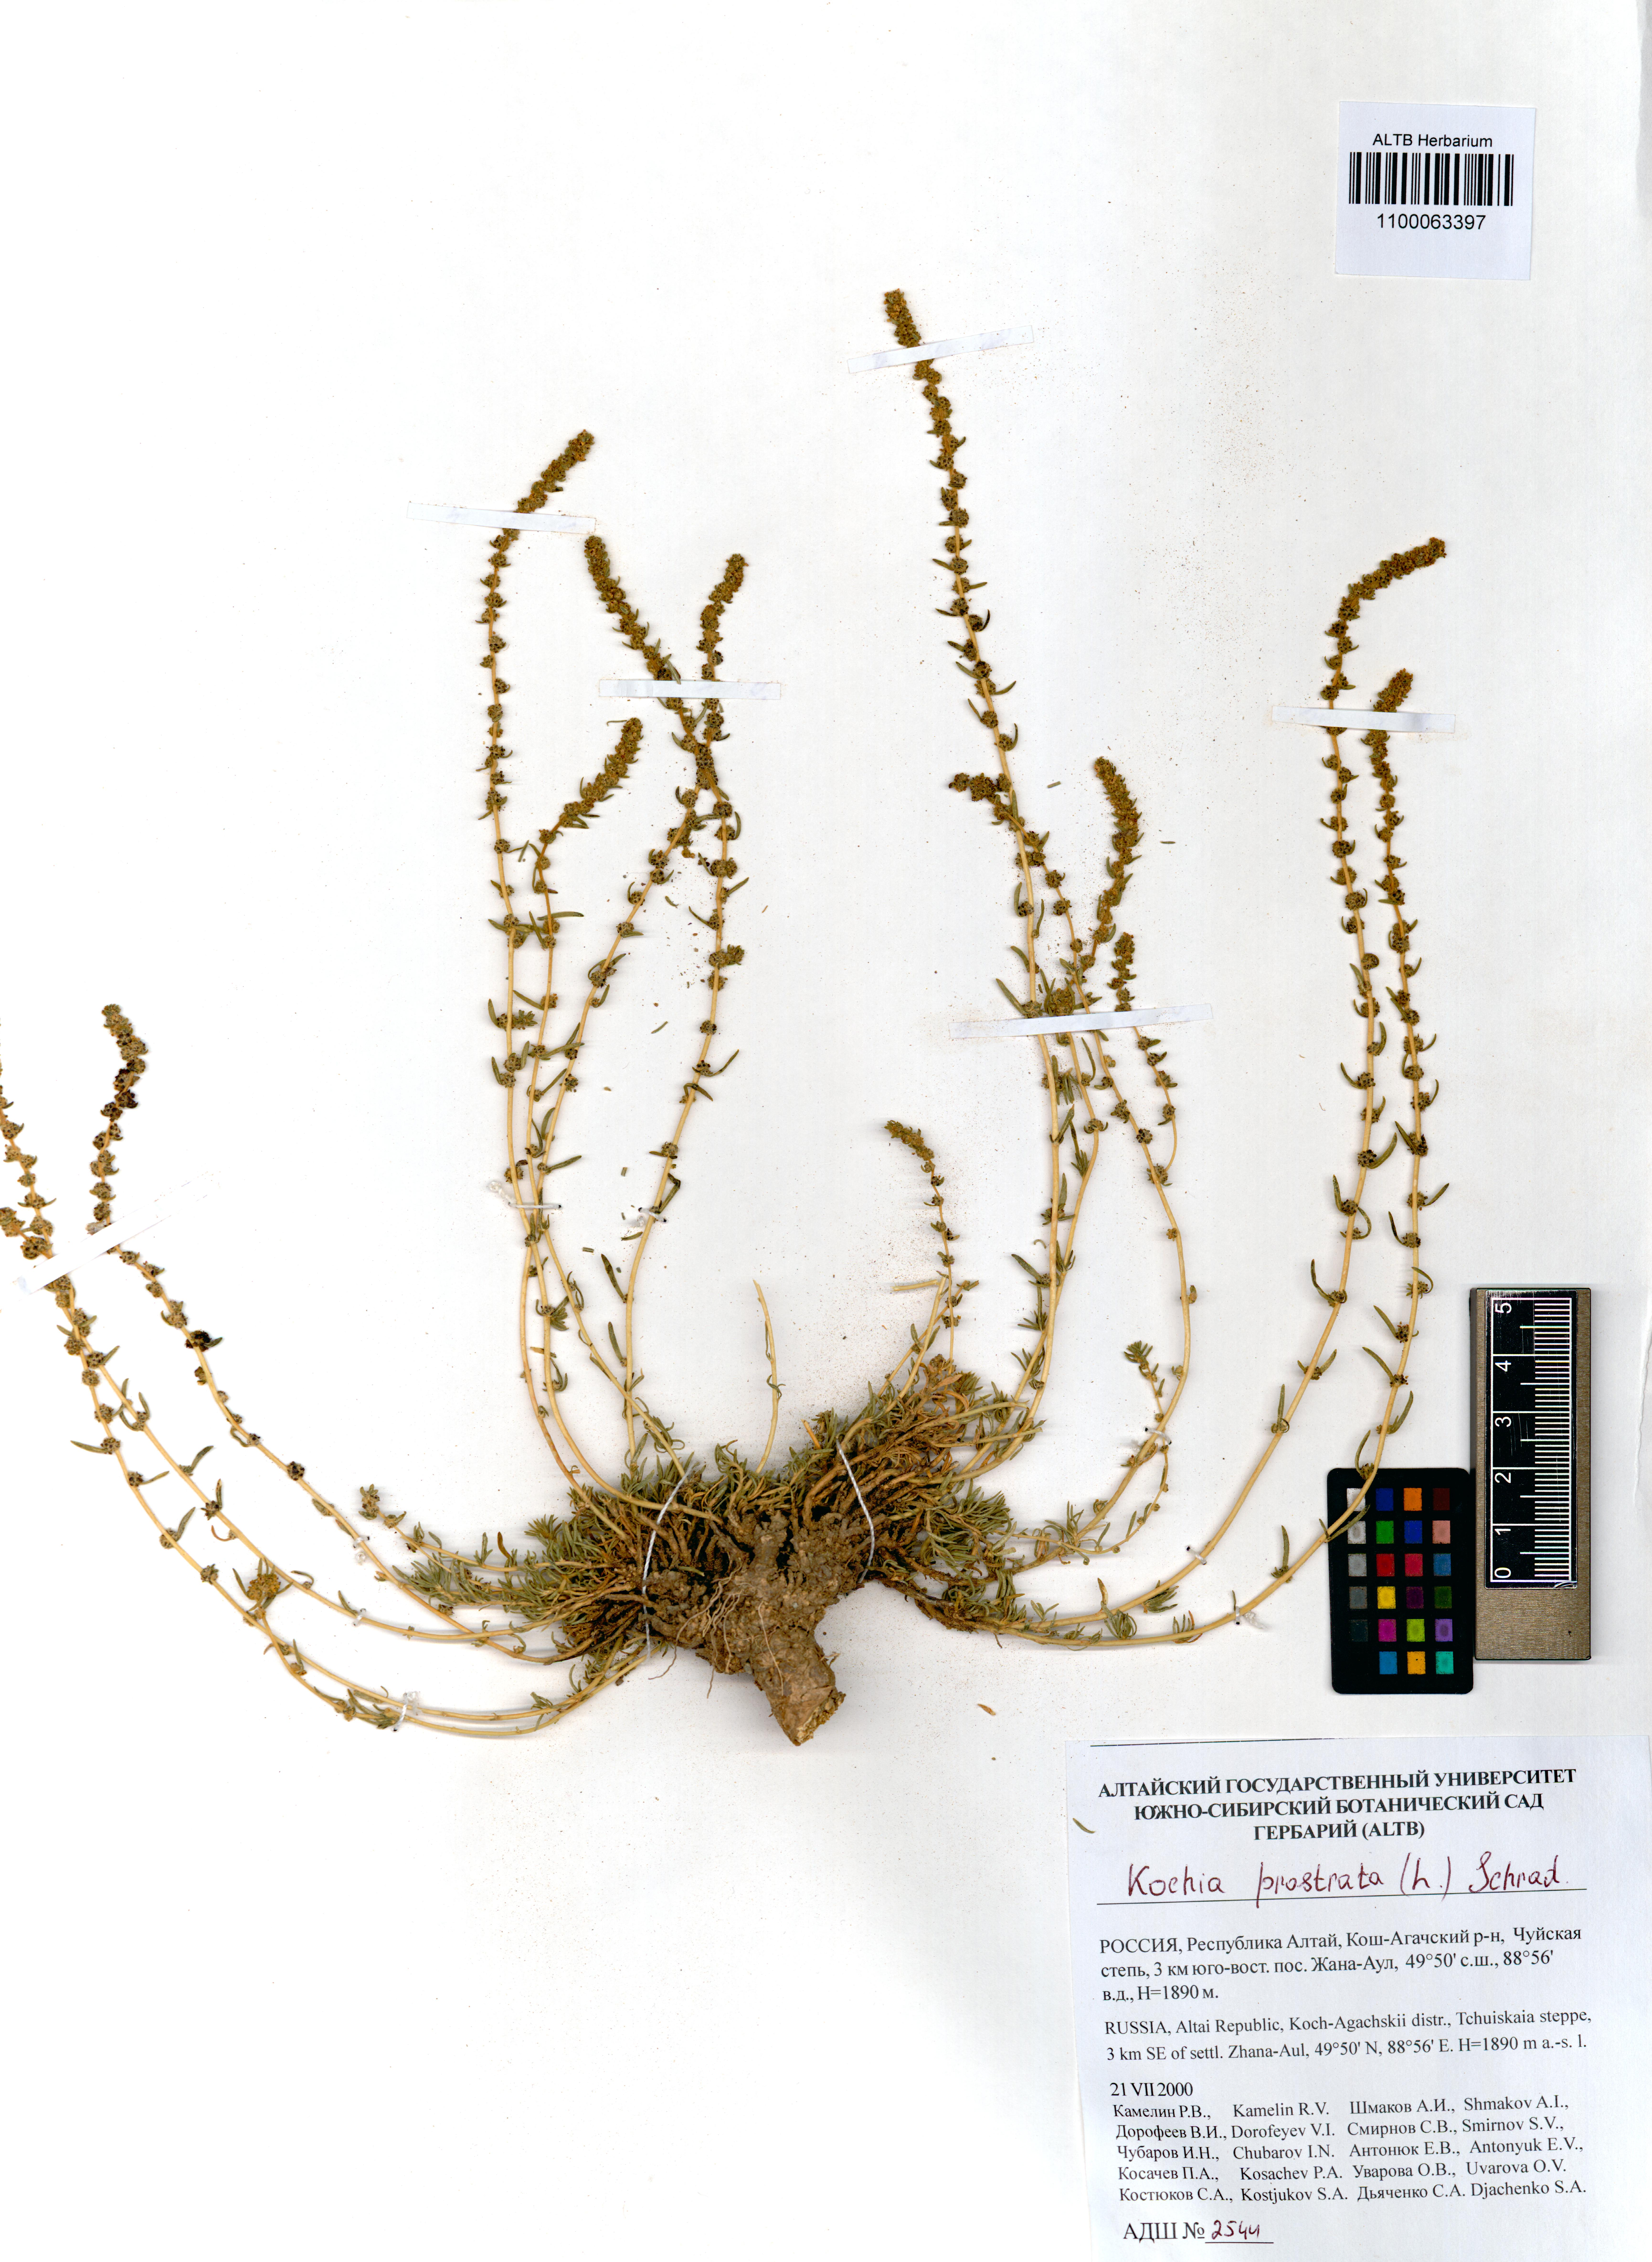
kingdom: Plantae
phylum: Tracheophyta
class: Magnoliopsida
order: Caryophyllales
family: Amaranthaceae
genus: Bassia
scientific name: Bassia prostrata
